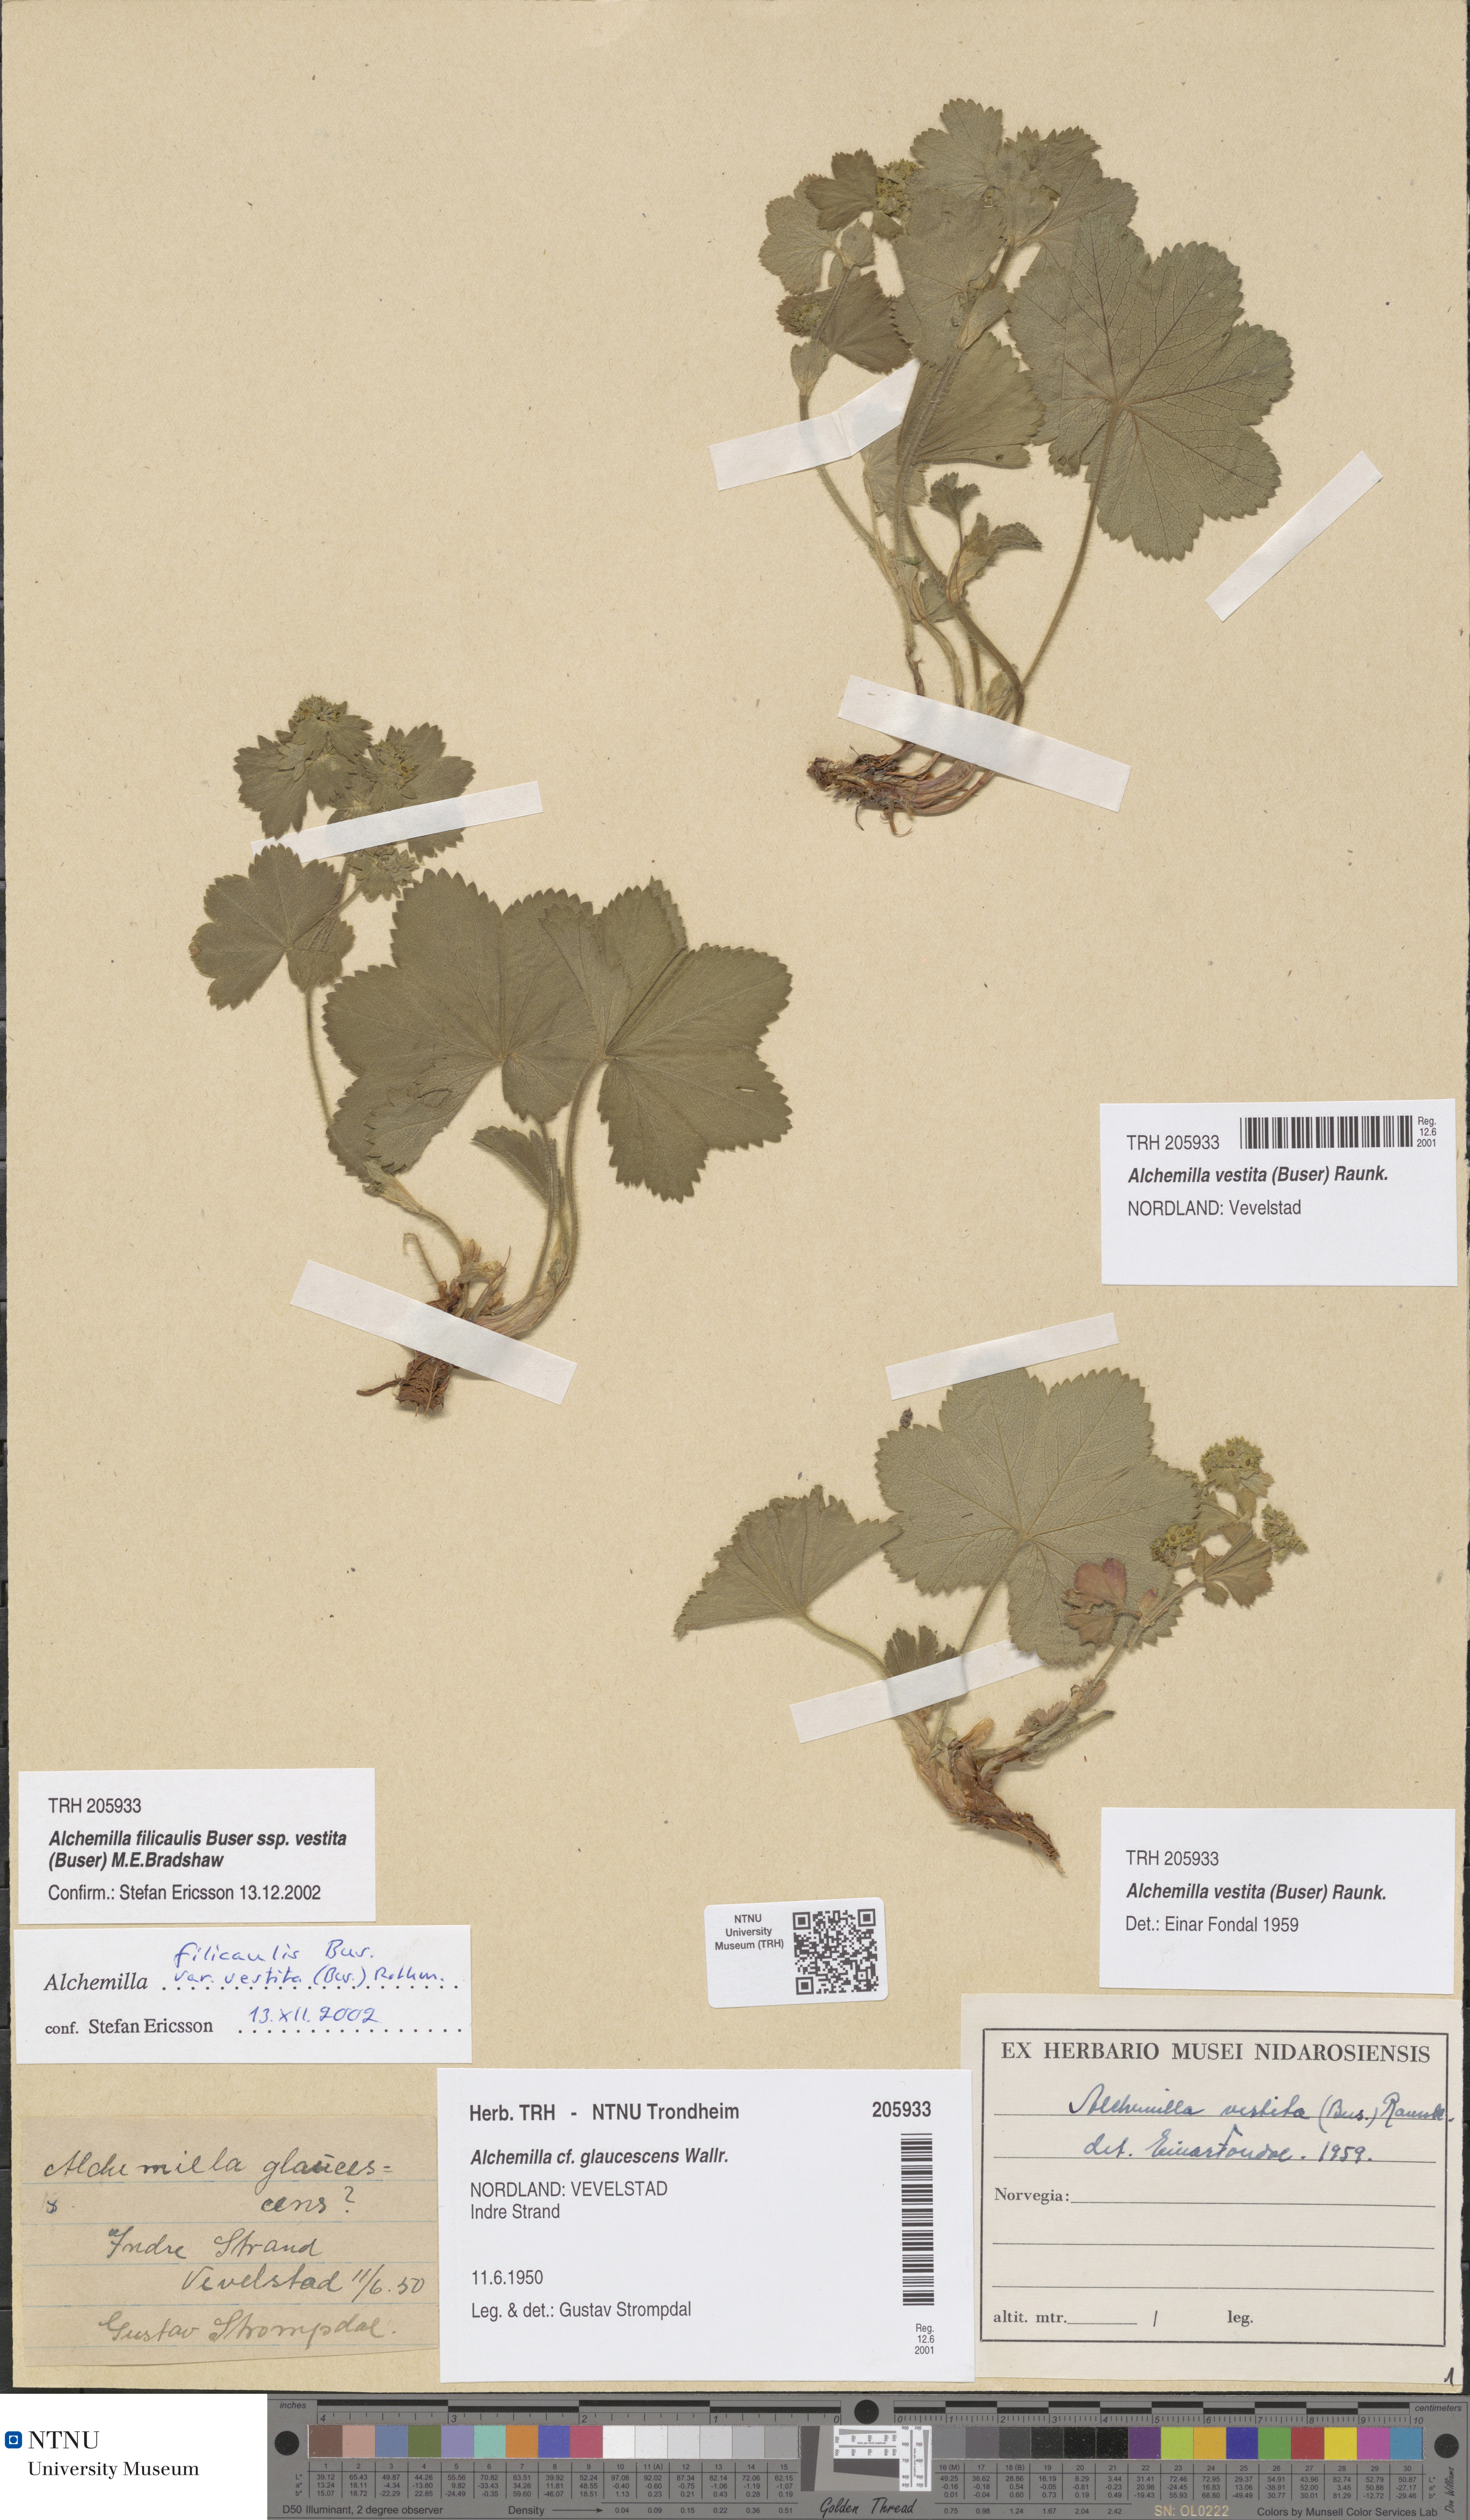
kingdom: Plantae
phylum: Tracheophyta
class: Magnoliopsida
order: Rosales
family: Rosaceae
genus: Alchemilla
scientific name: Alchemilla filicaulis
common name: Hairy lady's-mantle
